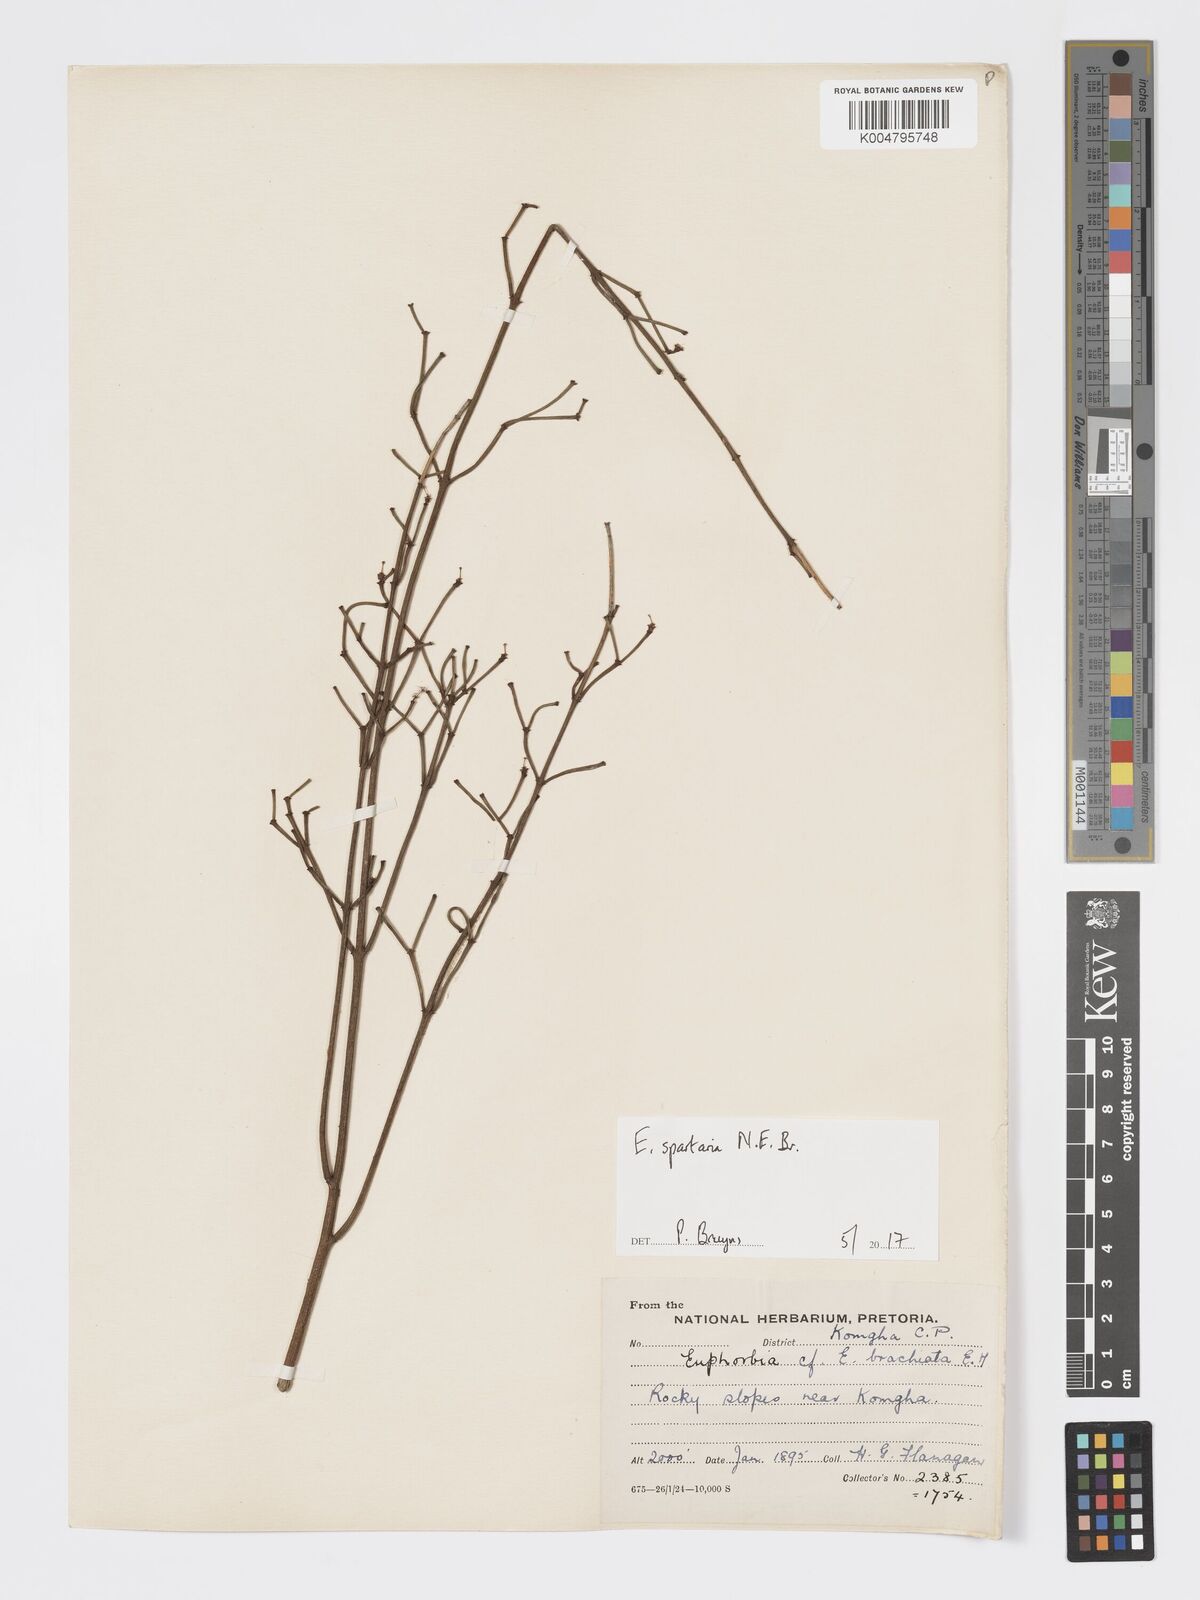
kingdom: Plantae
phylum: Tracheophyta
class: Magnoliopsida
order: Malpighiales
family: Euphorbiaceae
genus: Euphorbia
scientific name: Euphorbia spartaria
